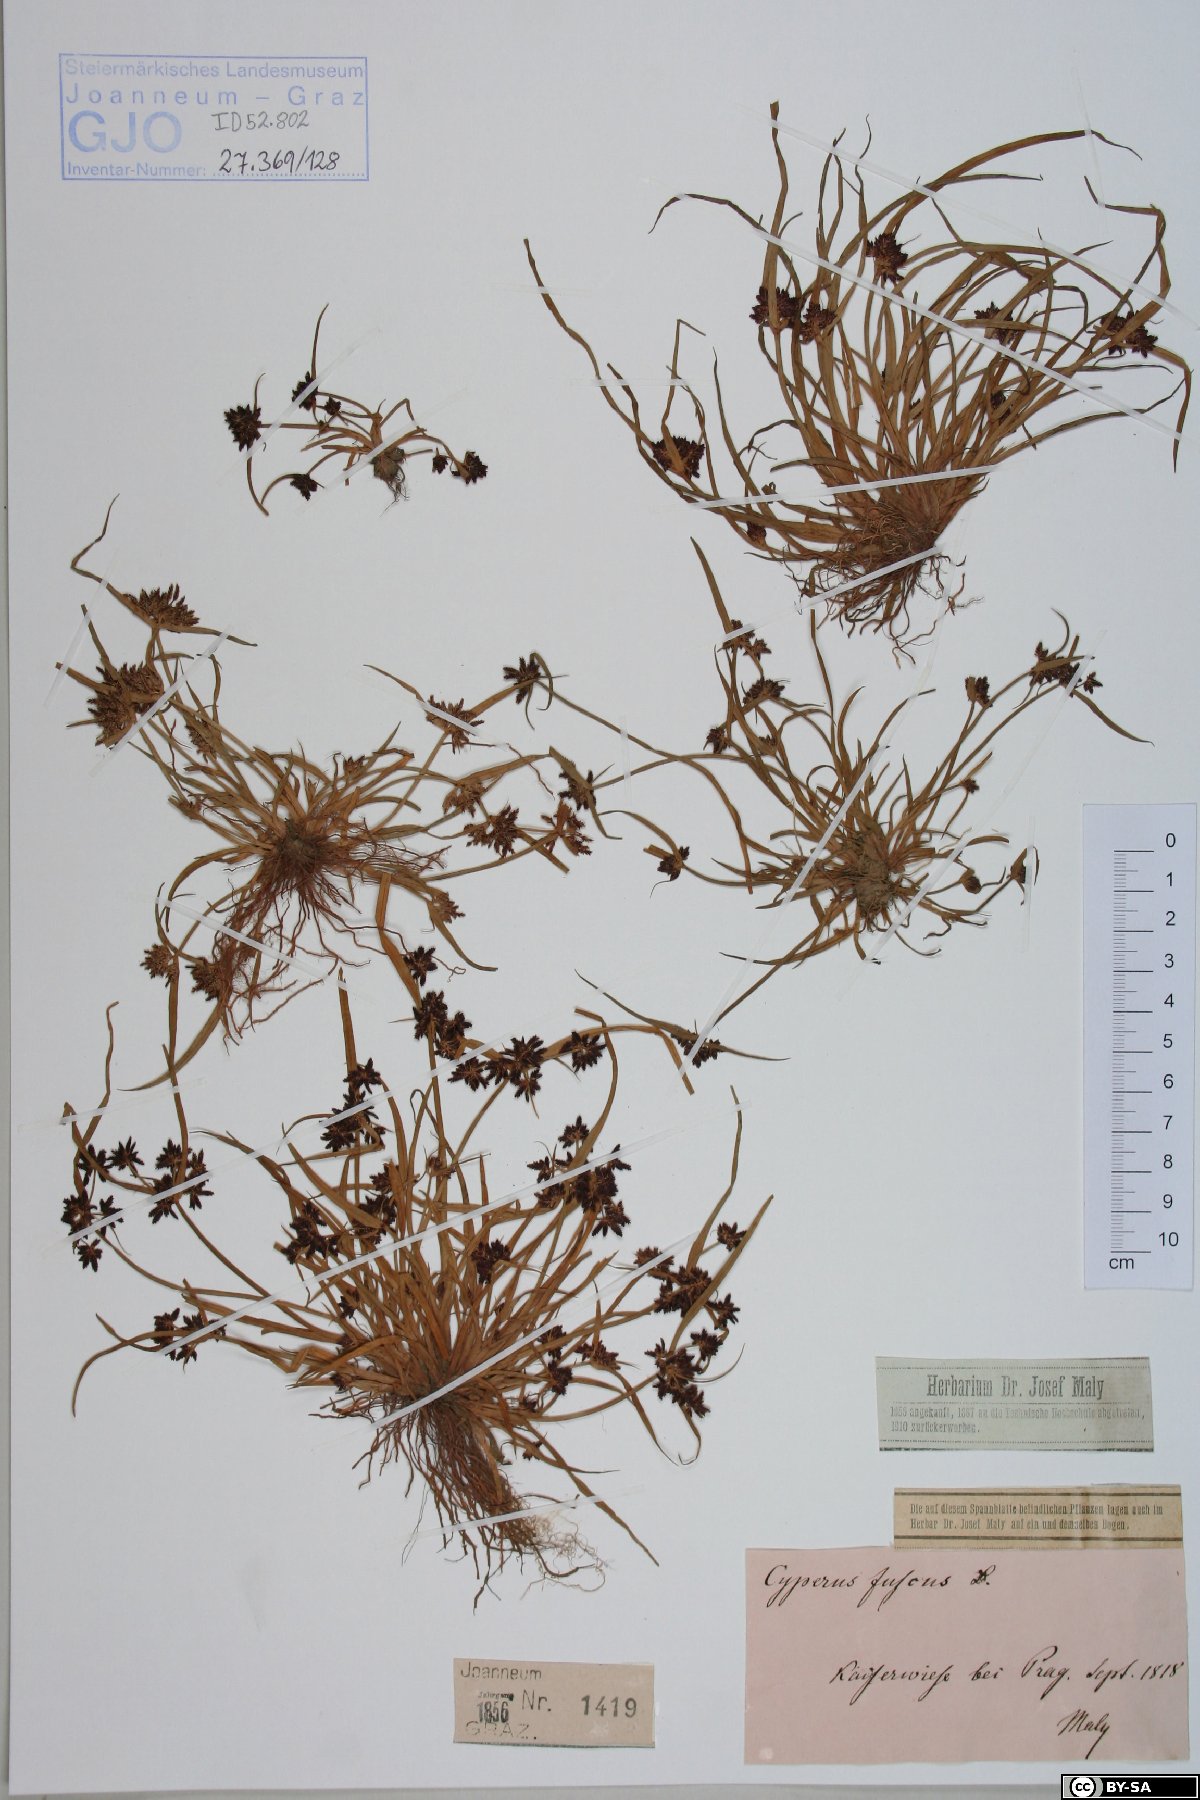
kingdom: Plantae
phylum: Tracheophyta
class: Liliopsida
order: Poales
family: Cyperaceae
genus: Cyperus
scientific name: Cyperus fuscus
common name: Brown galingale
